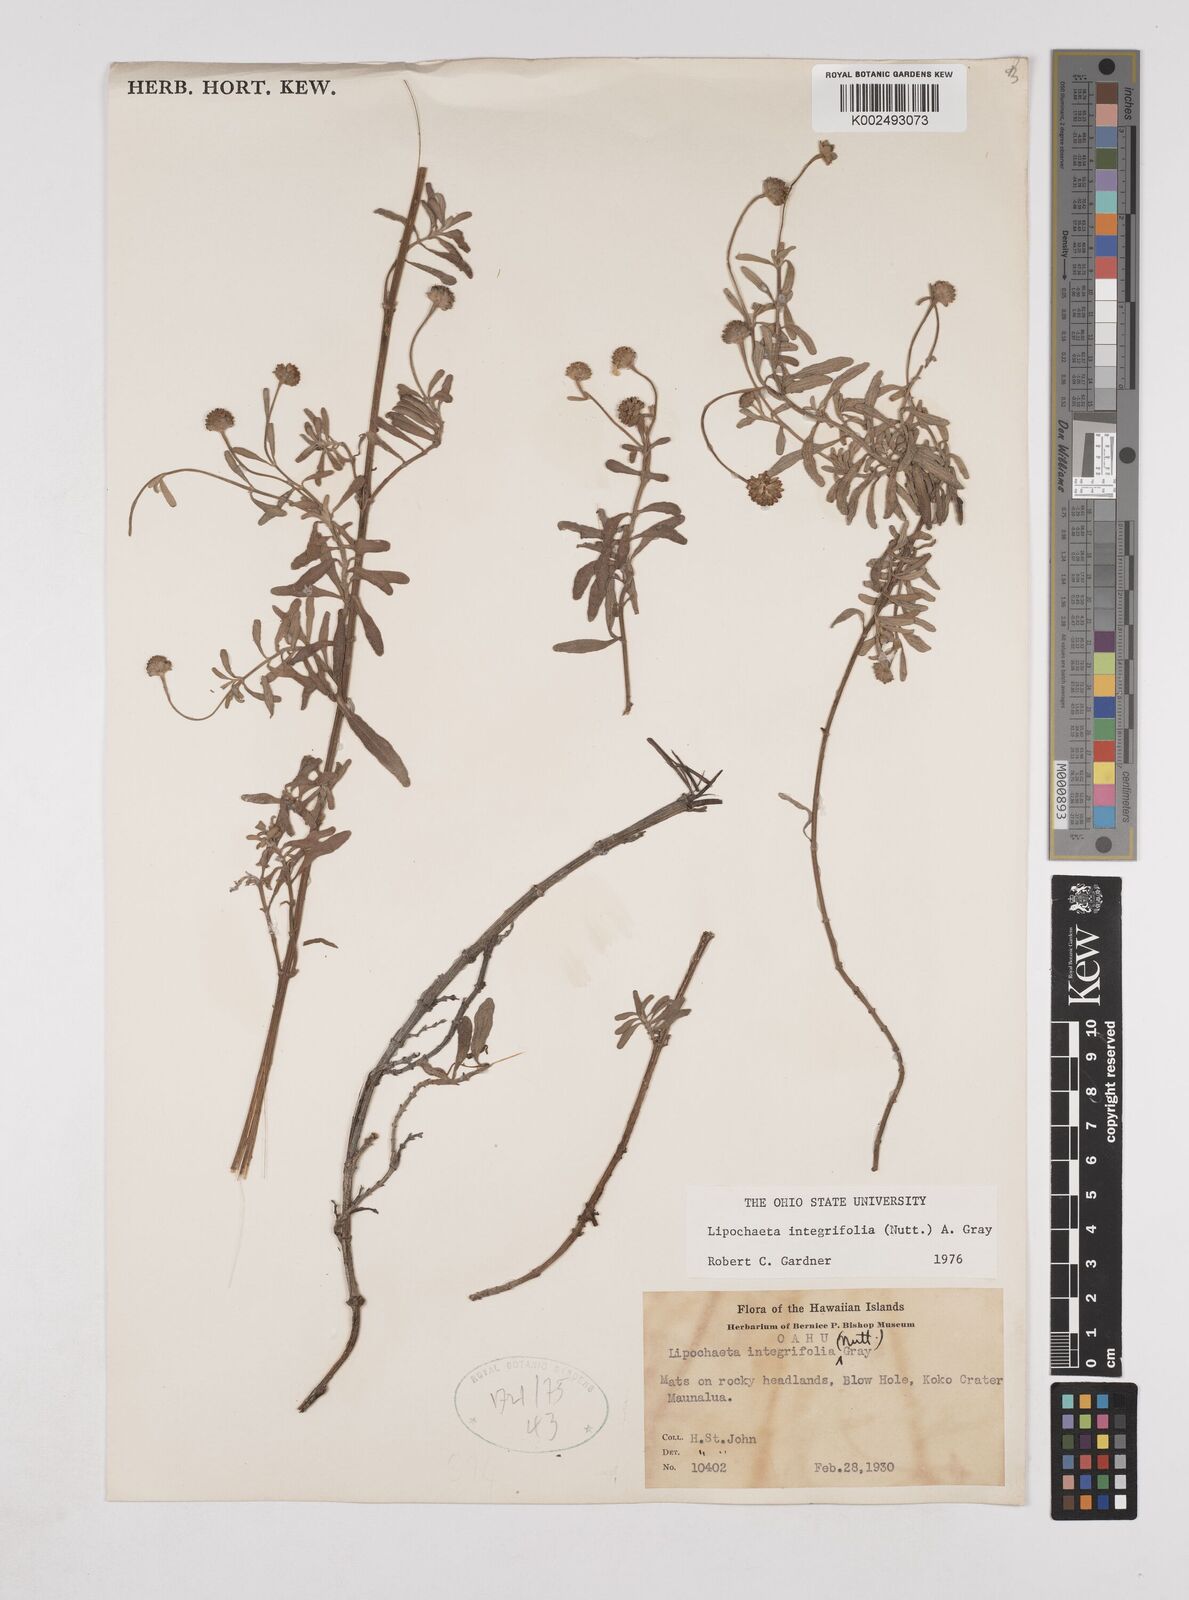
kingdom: Plantae
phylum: Tracheophyta
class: Magnoliopsida
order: Asterales
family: Asteraceae
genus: Lipochaeta
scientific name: Lipochaeta integrifolia
